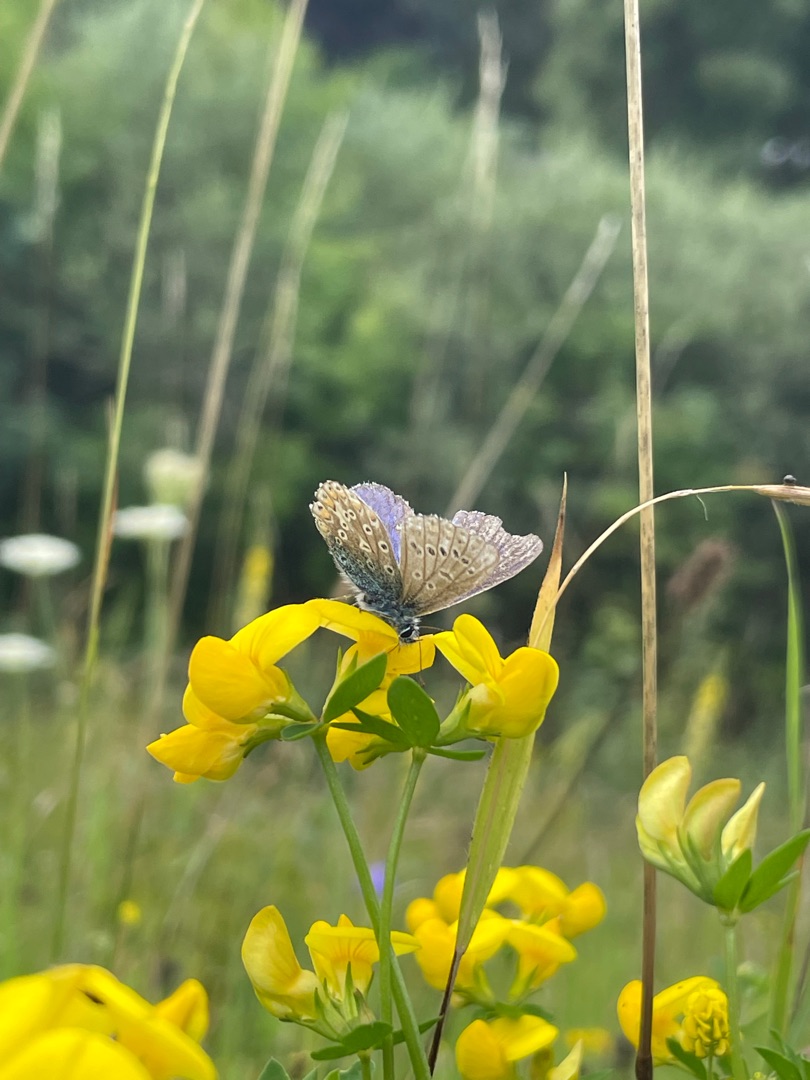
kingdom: Animalia
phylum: Arthropoda
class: Insecta
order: Lepidoptera
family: Lycaenidae
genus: Polyommatus
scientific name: Polyommatus icarus
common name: Almindelig blåfugl
